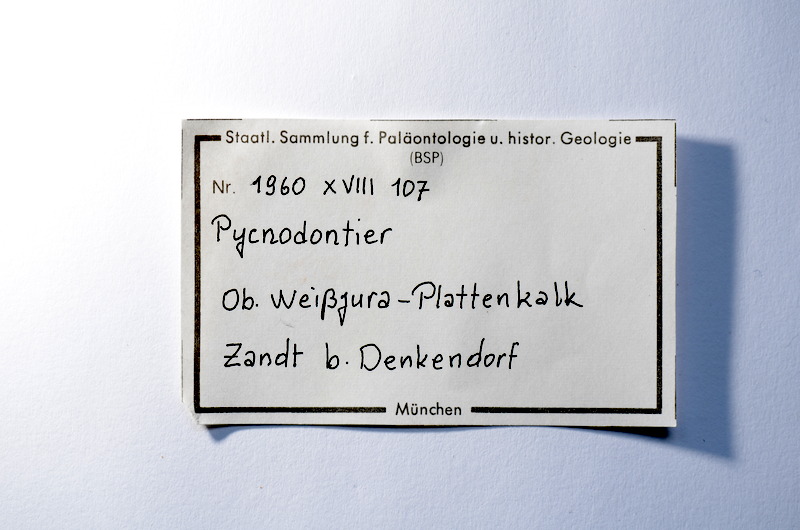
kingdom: Animalia
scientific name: Animalia
